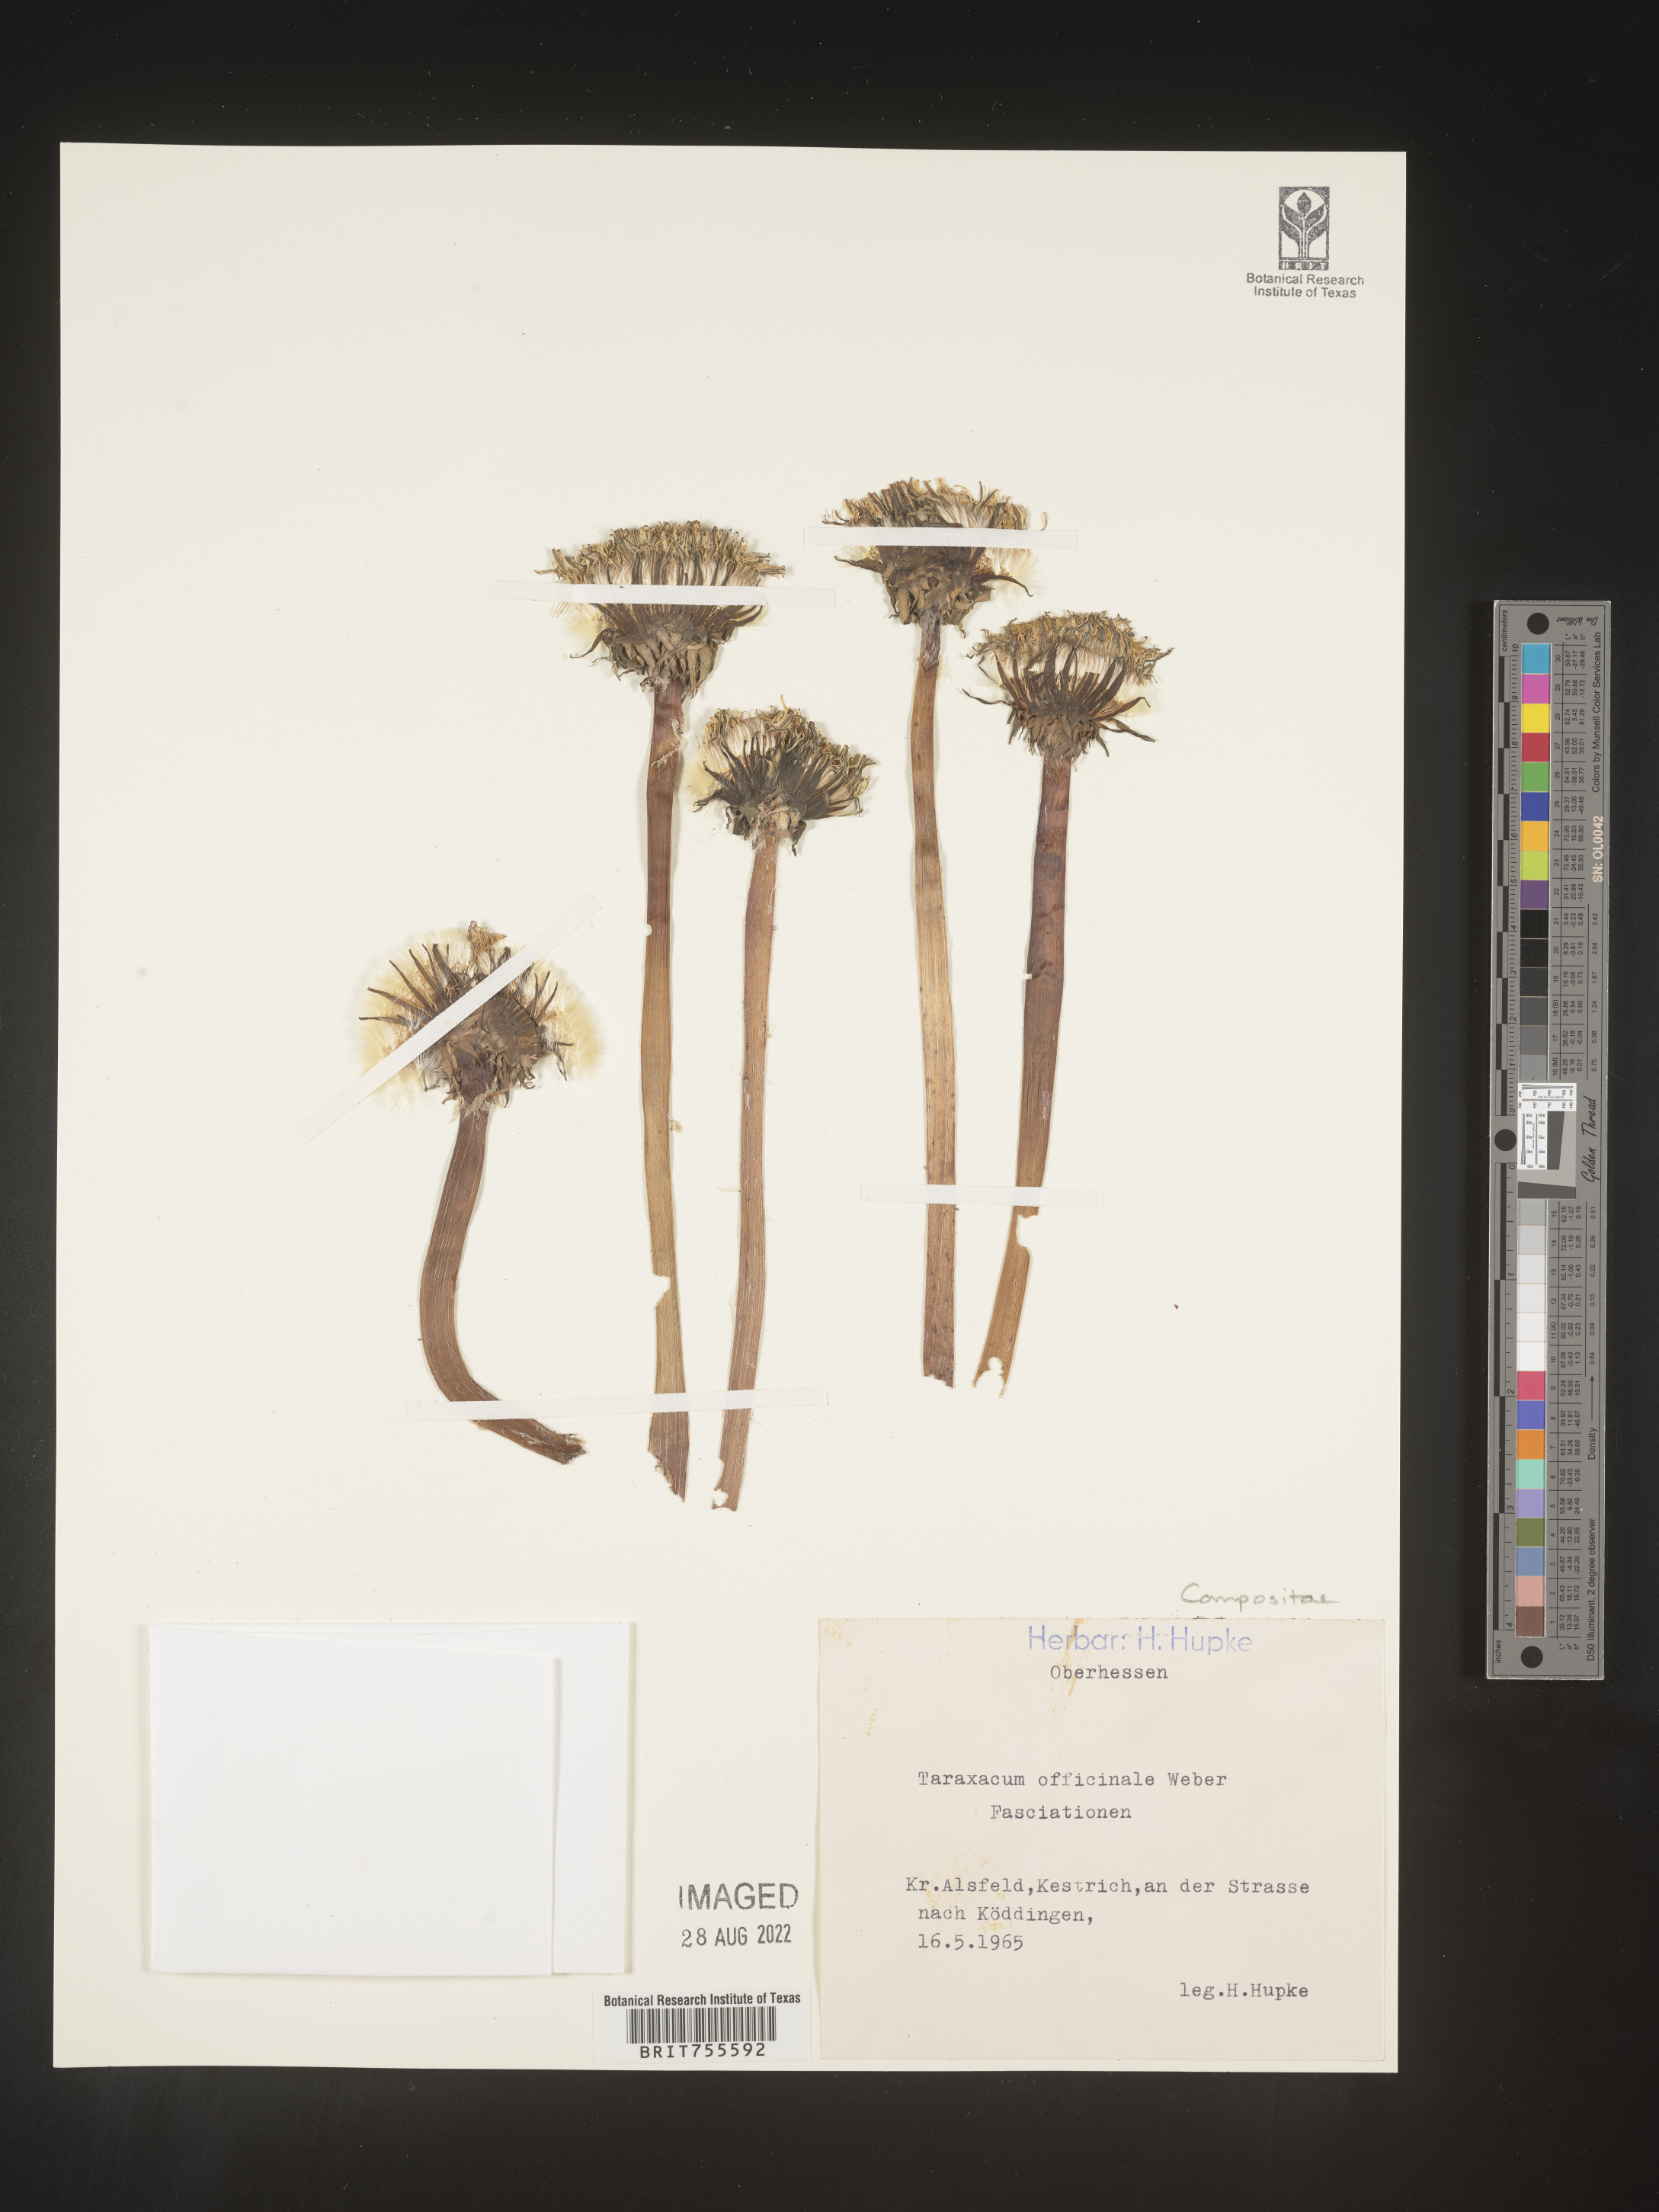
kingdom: Plantae
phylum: Tracheophyta
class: Magnoliopsida
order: Asterales
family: Asteraceae
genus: Taraxacum
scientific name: Taraxacum
